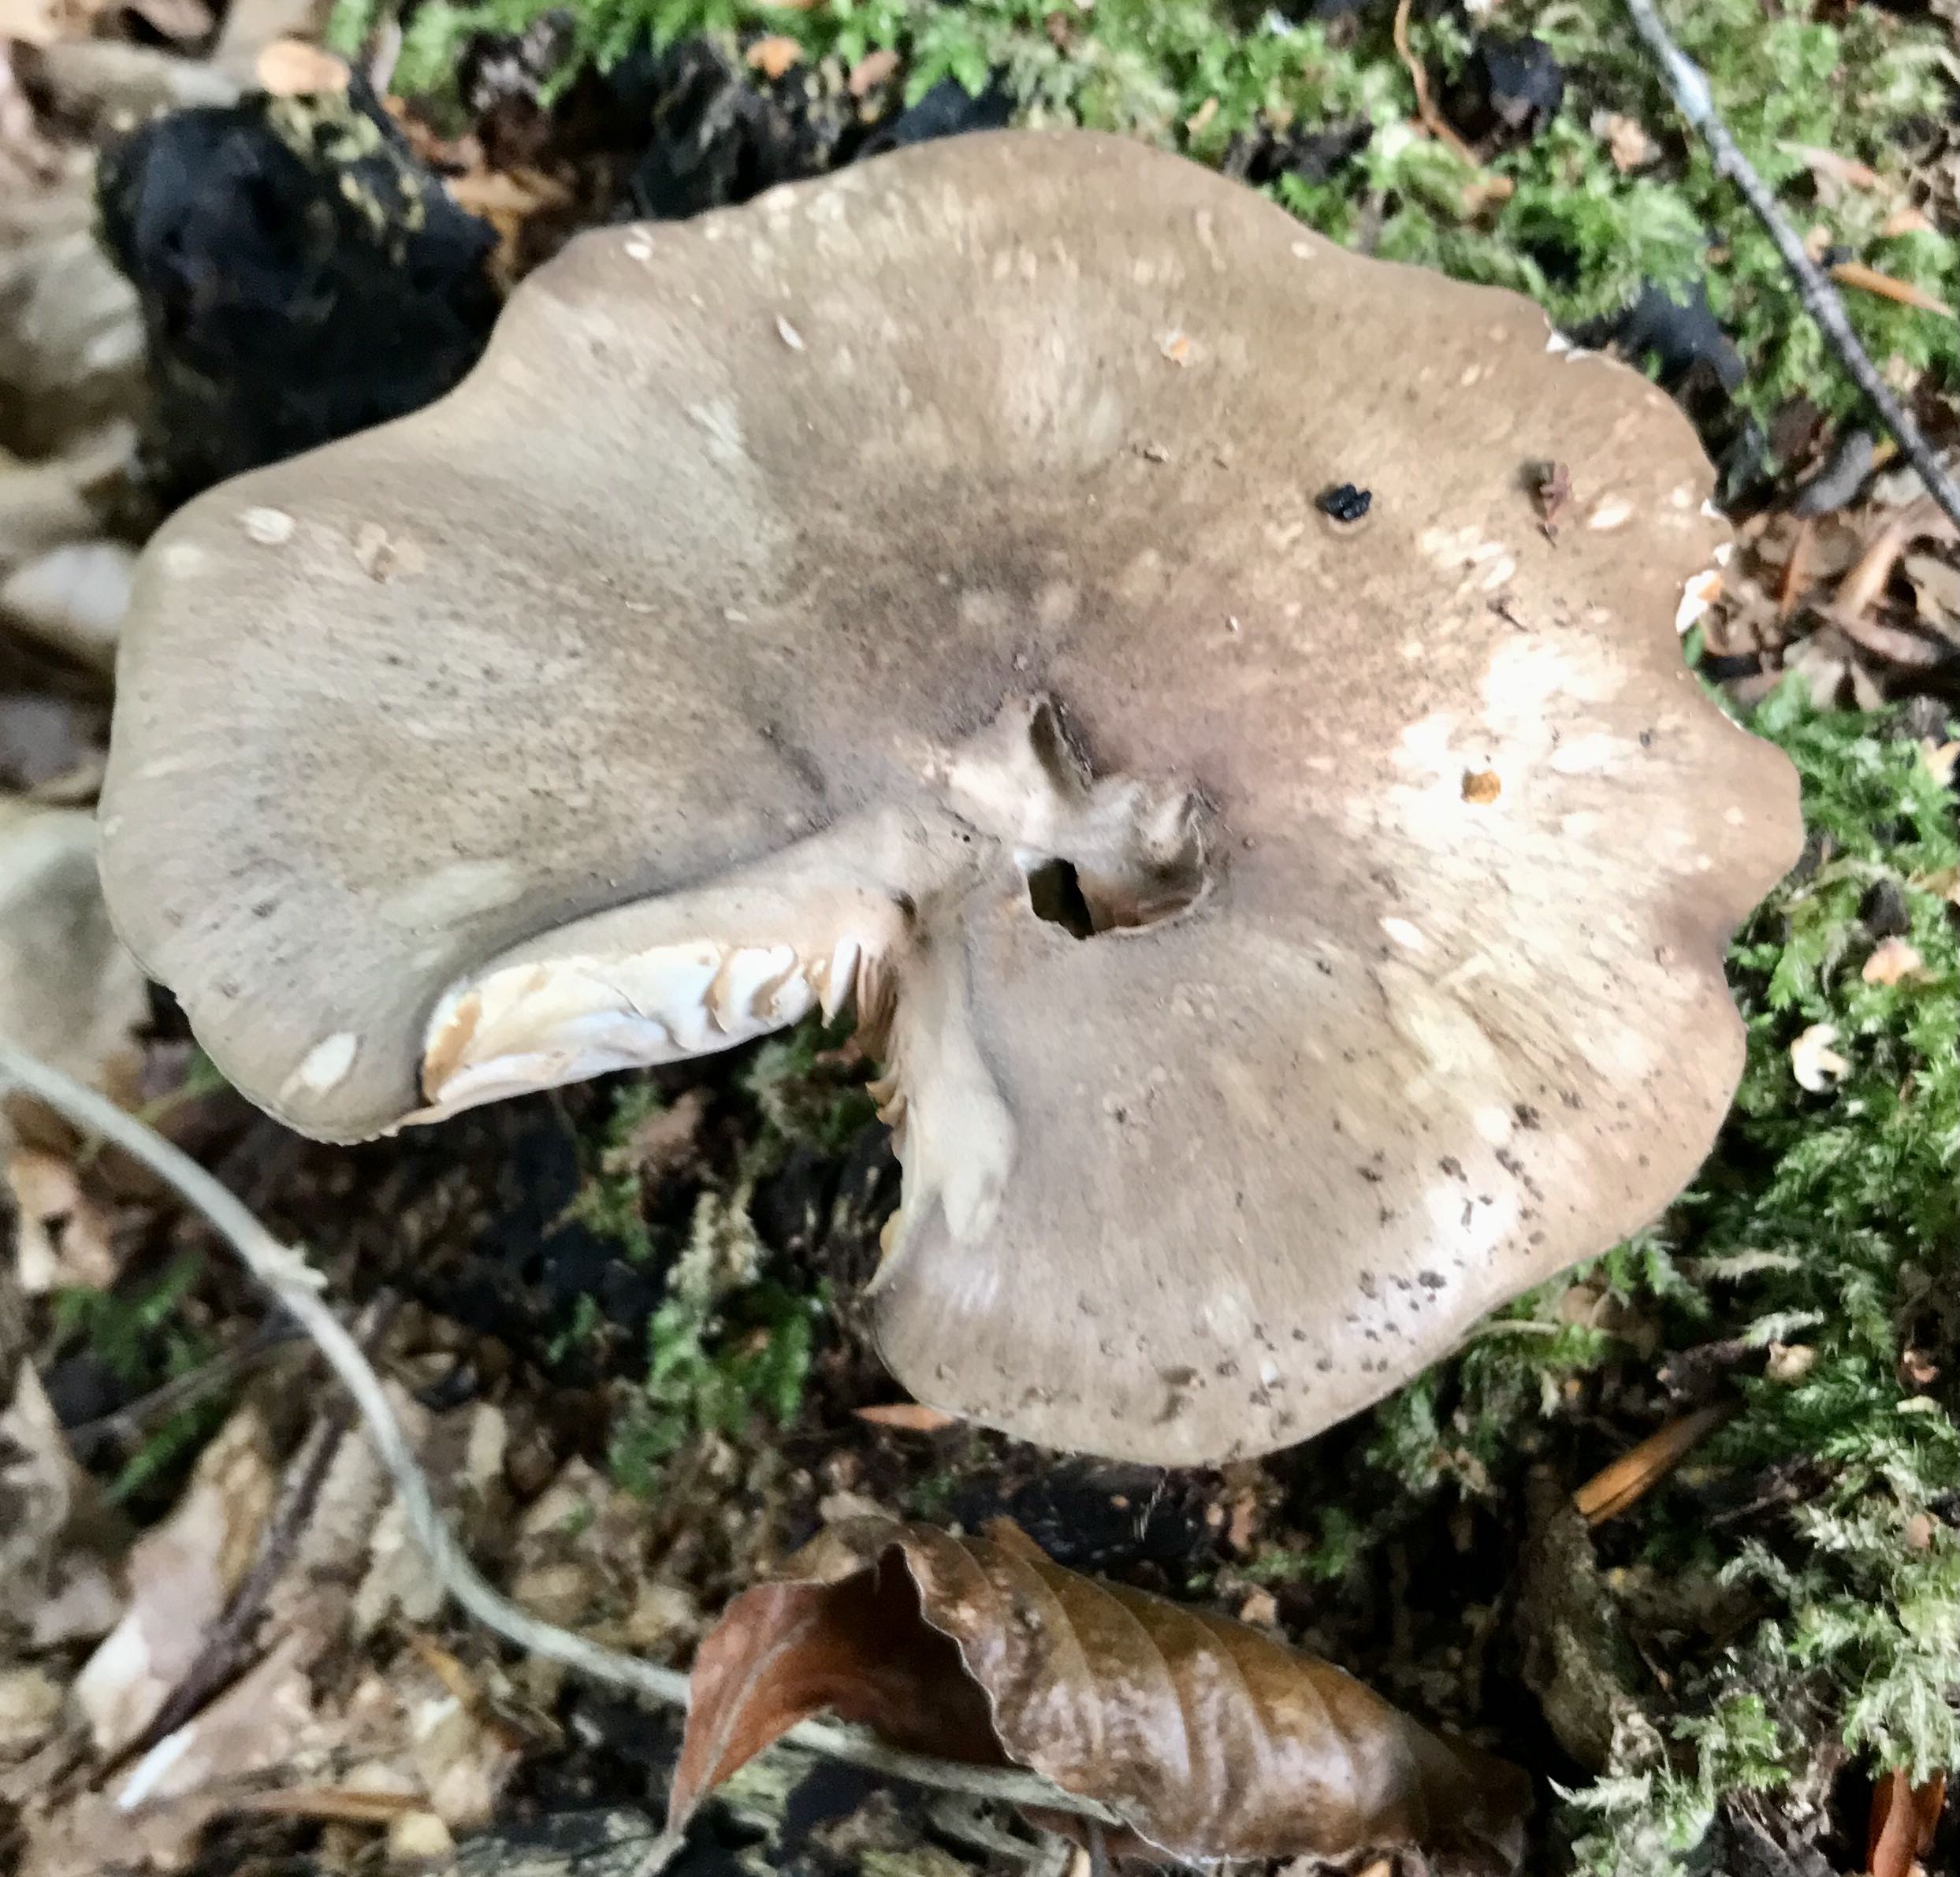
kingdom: Fungi
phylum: Basidiomycota
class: Agaricomycetes
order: Agaricales
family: Pluteaceae
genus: Pluteus
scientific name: Pluteus cervinus
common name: sodfarvet skærmhat
